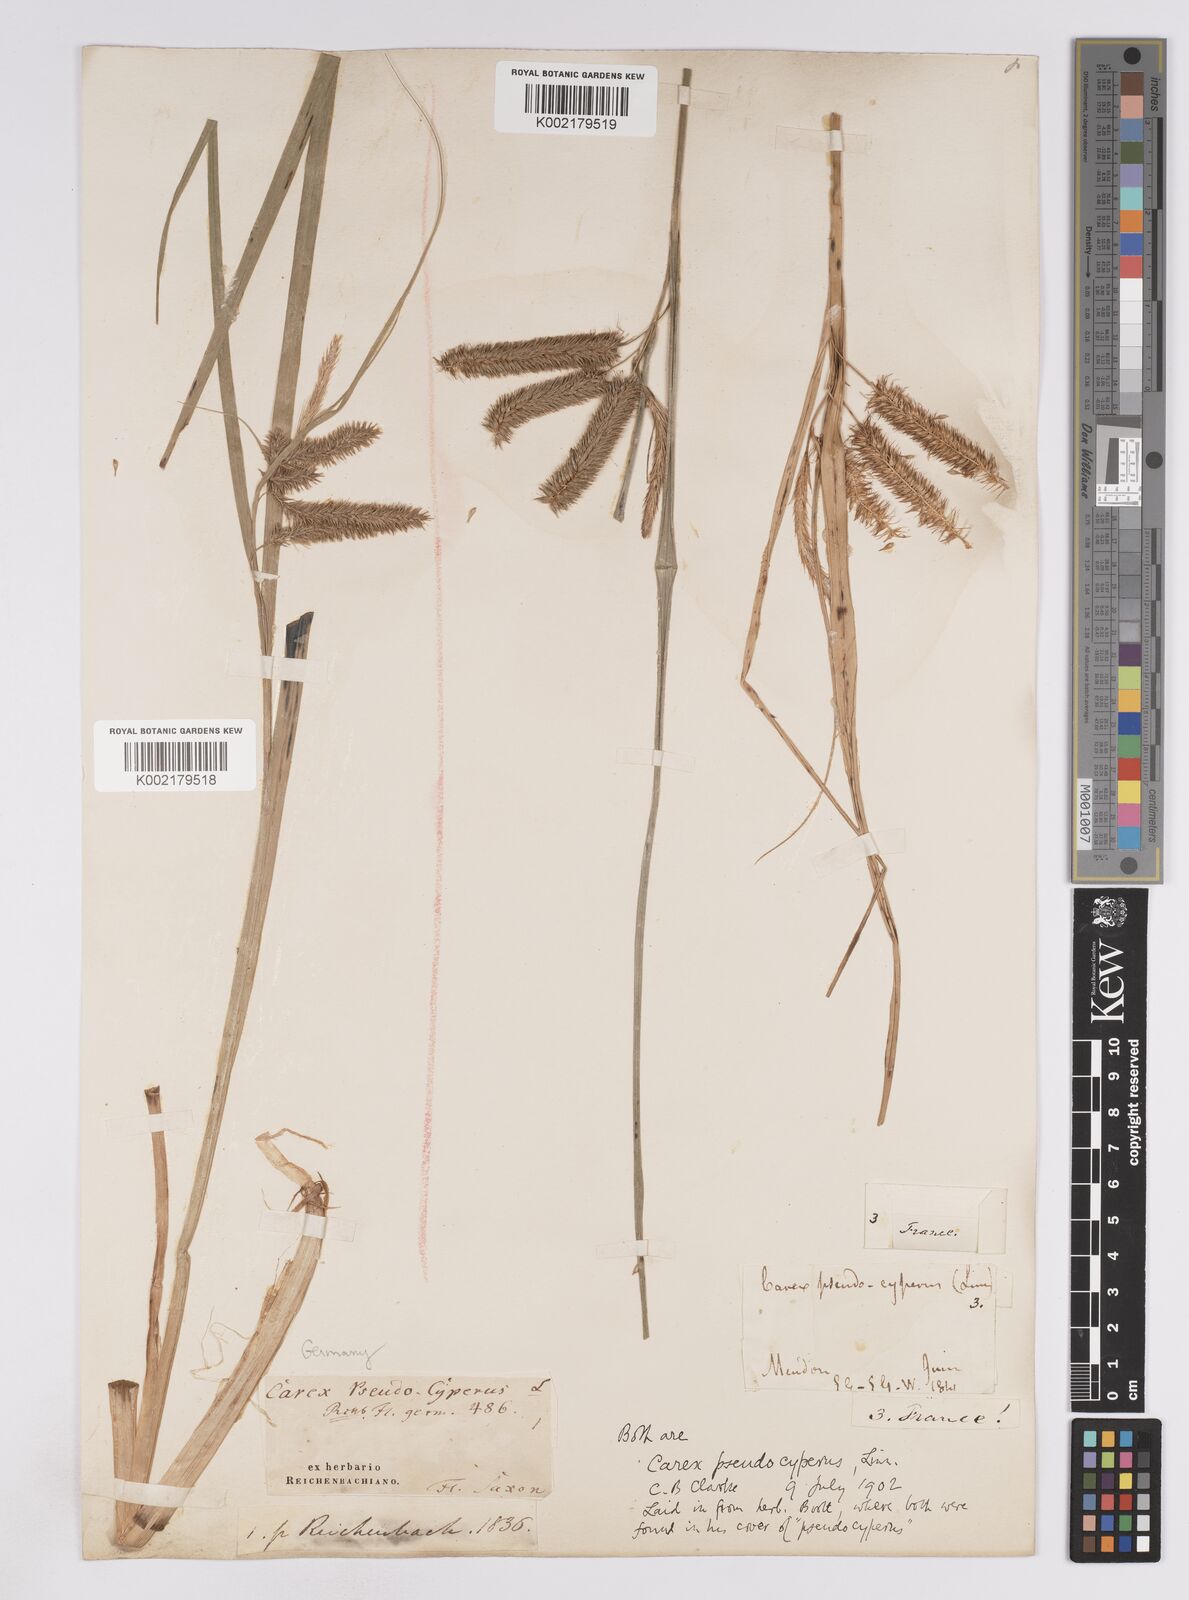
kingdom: Plantae
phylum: Tracheophyta
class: Liliopsida
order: Poales
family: Cyperaceae
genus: Carex
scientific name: Carex pseudocyperus
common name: Cyperus sedge
